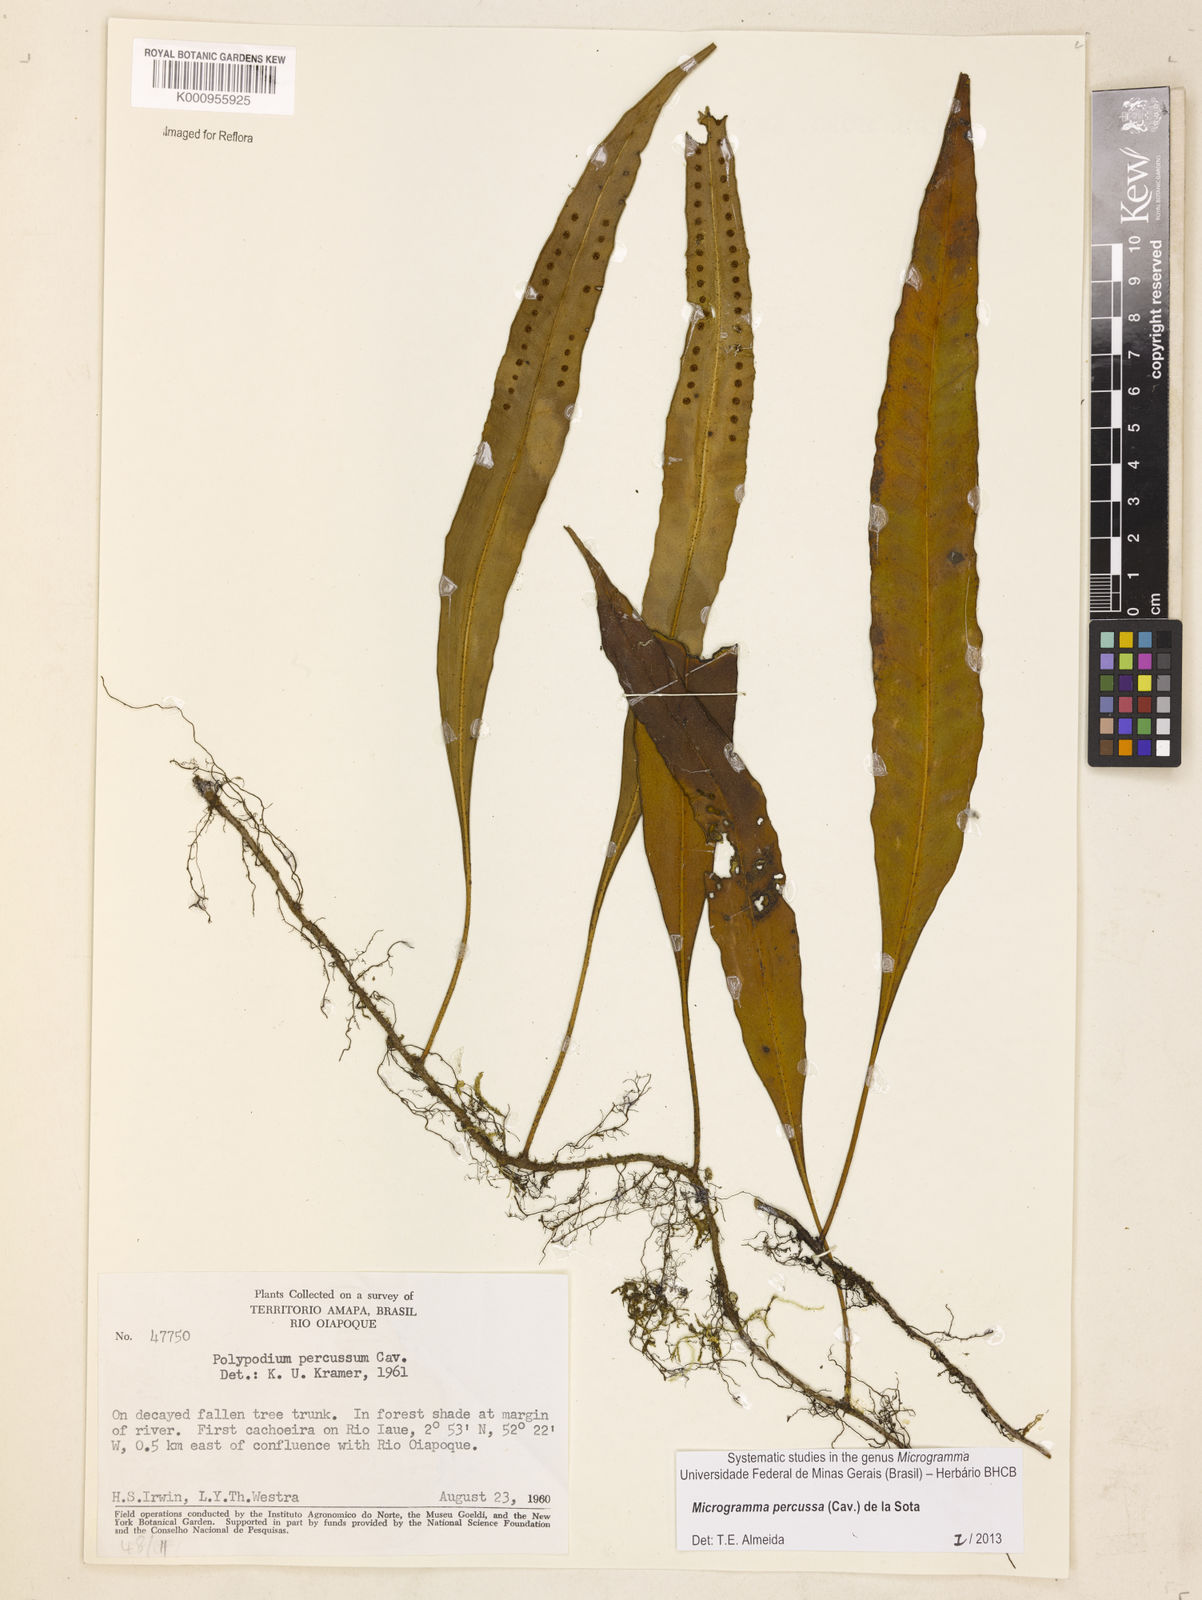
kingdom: Plantae
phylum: Tracheophyta
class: Polypodiopsida
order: Polypodiales
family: Polypodiaceae
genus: Microgramma
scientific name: Microgramma percussa
